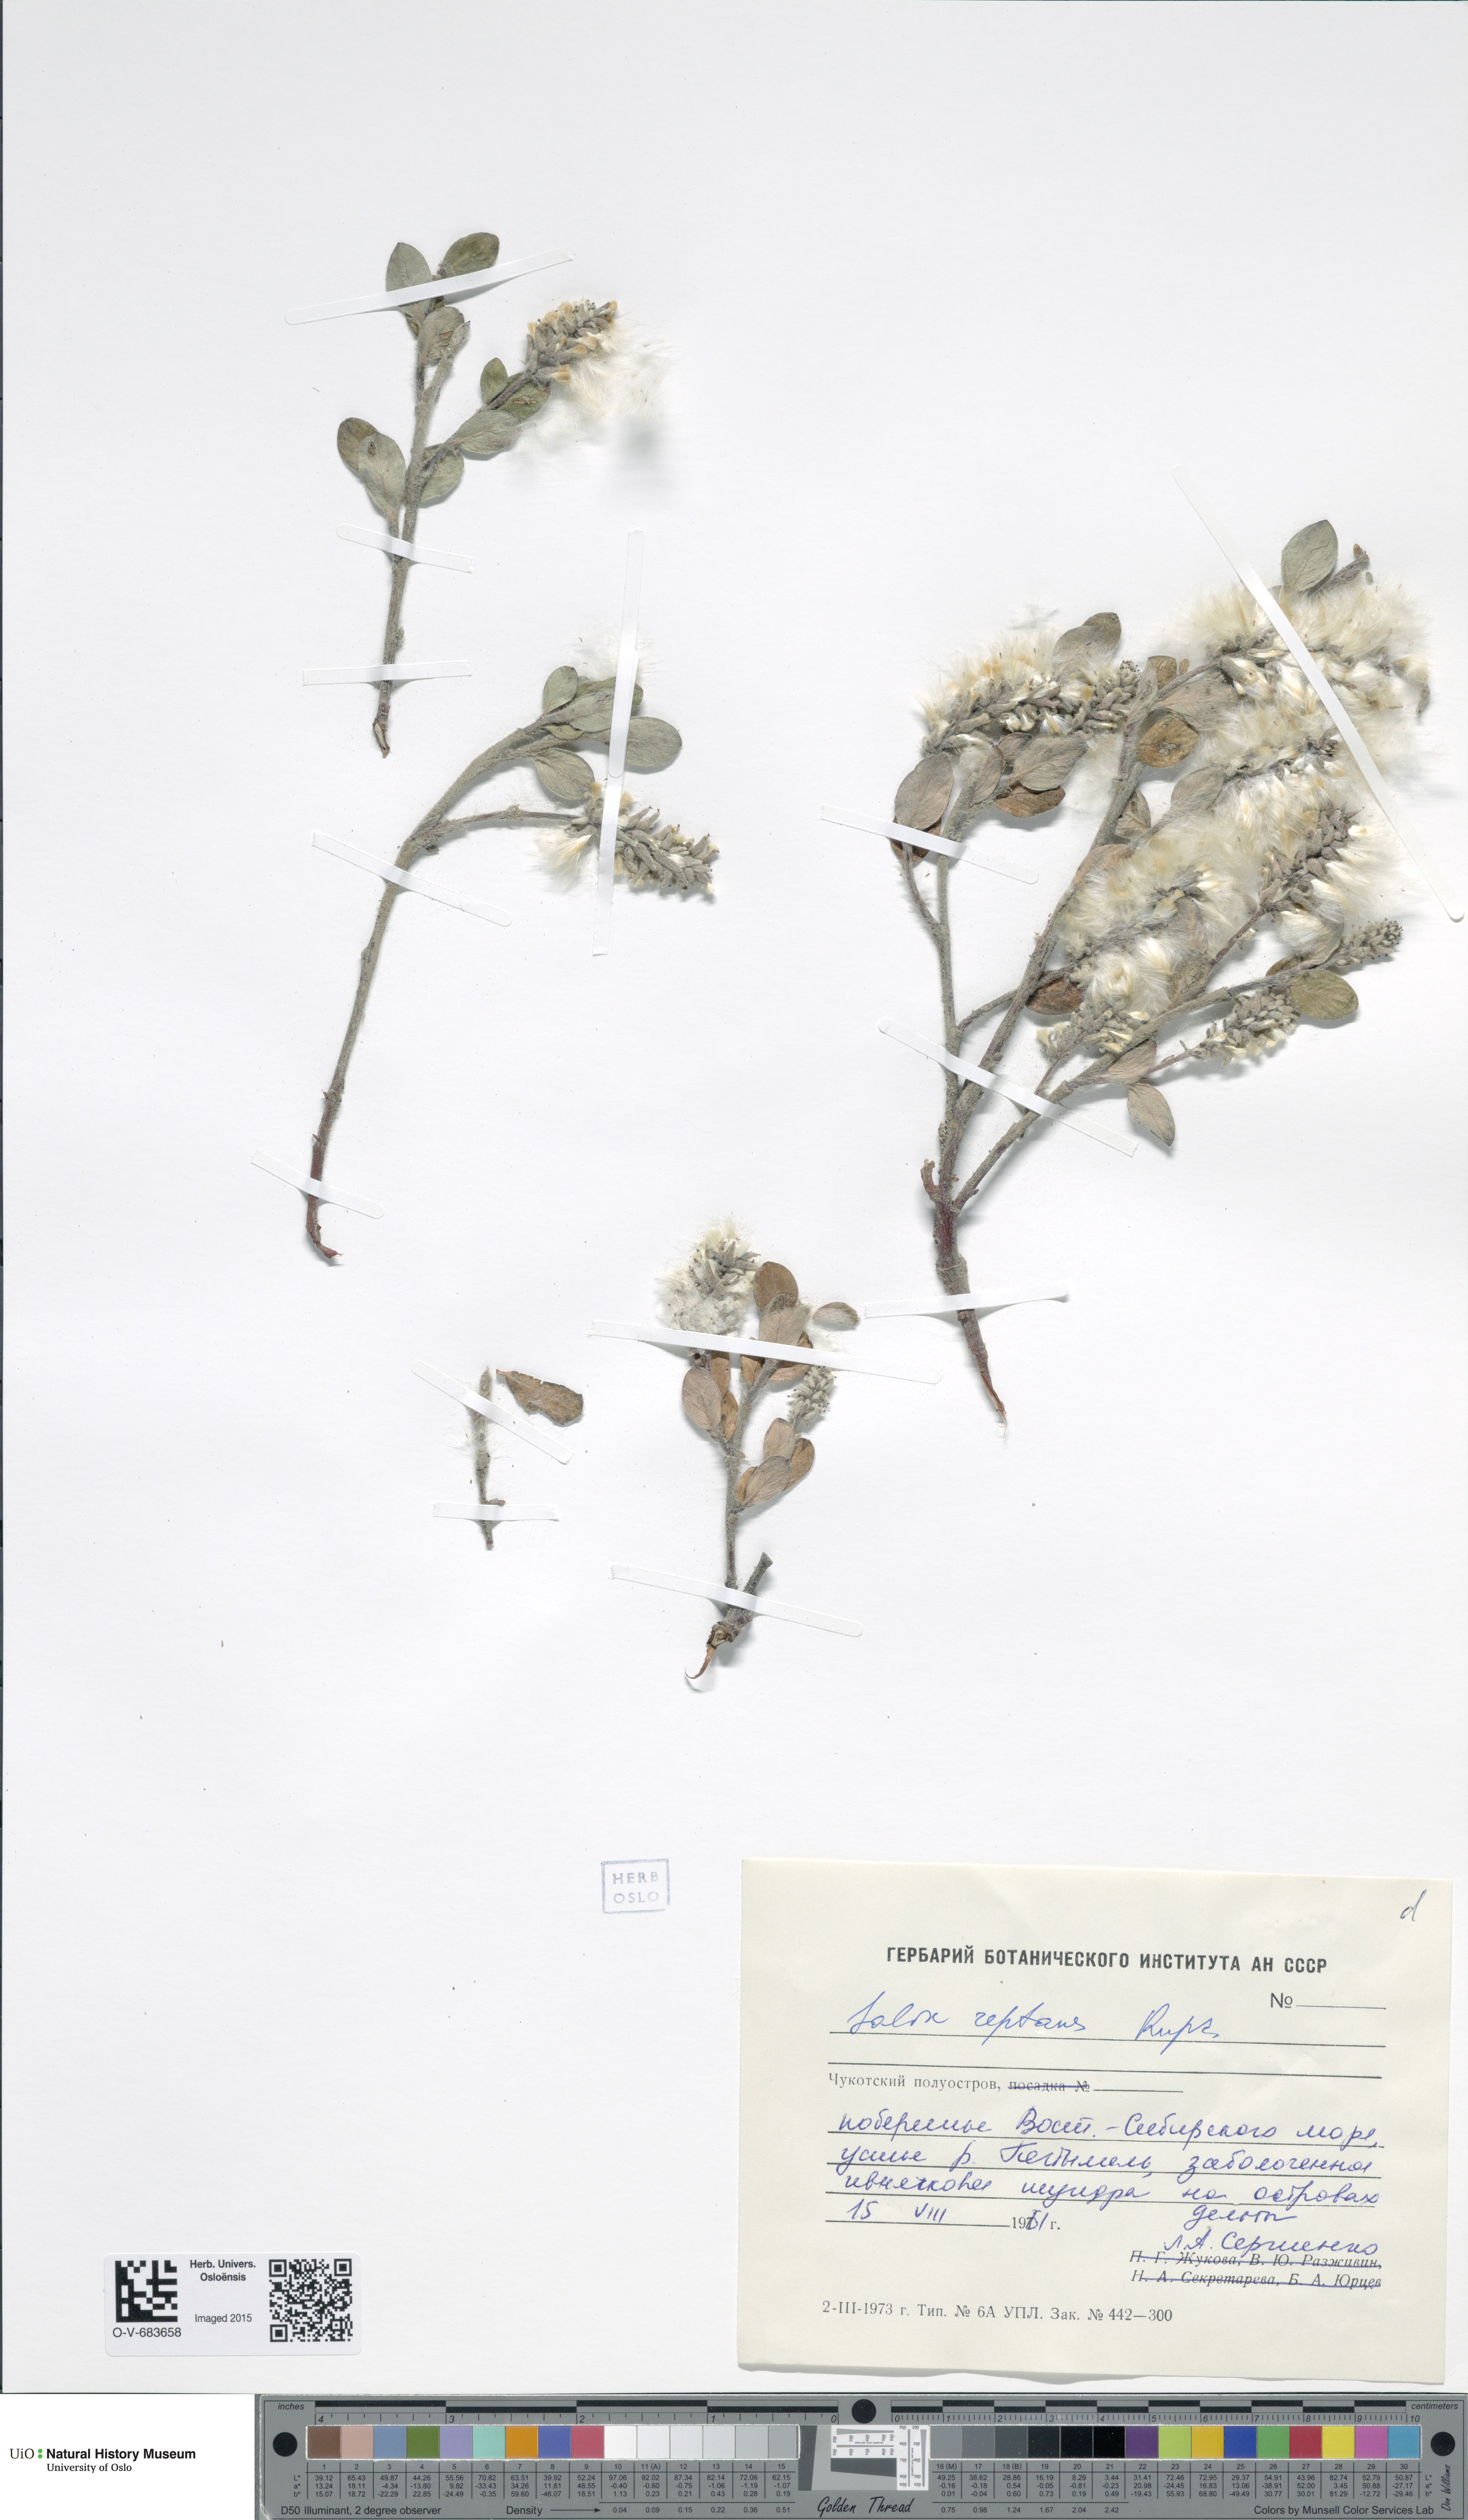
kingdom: Plantae
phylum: Tracheophyta
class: Magnoliopsida
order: Malpighiales
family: Salicaceae
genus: Salix
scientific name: Salix reptans
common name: Arctic creeping willow
